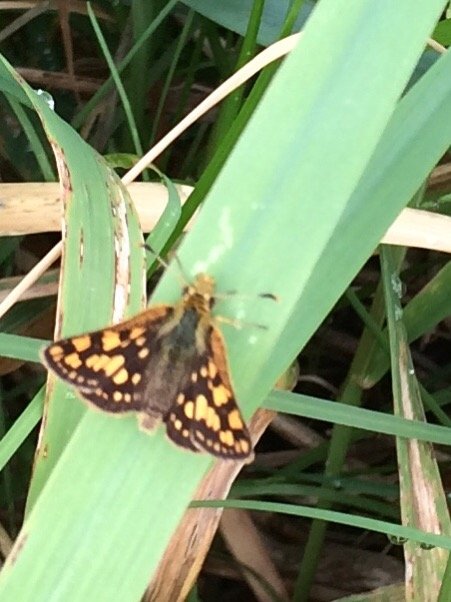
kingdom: Animalia
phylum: Arthropoda
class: Insecta
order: Lepidoptera
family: Hesperiidae
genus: Carterocephalus
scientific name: Carterocephalus palaemon
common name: Chequered Skipper
